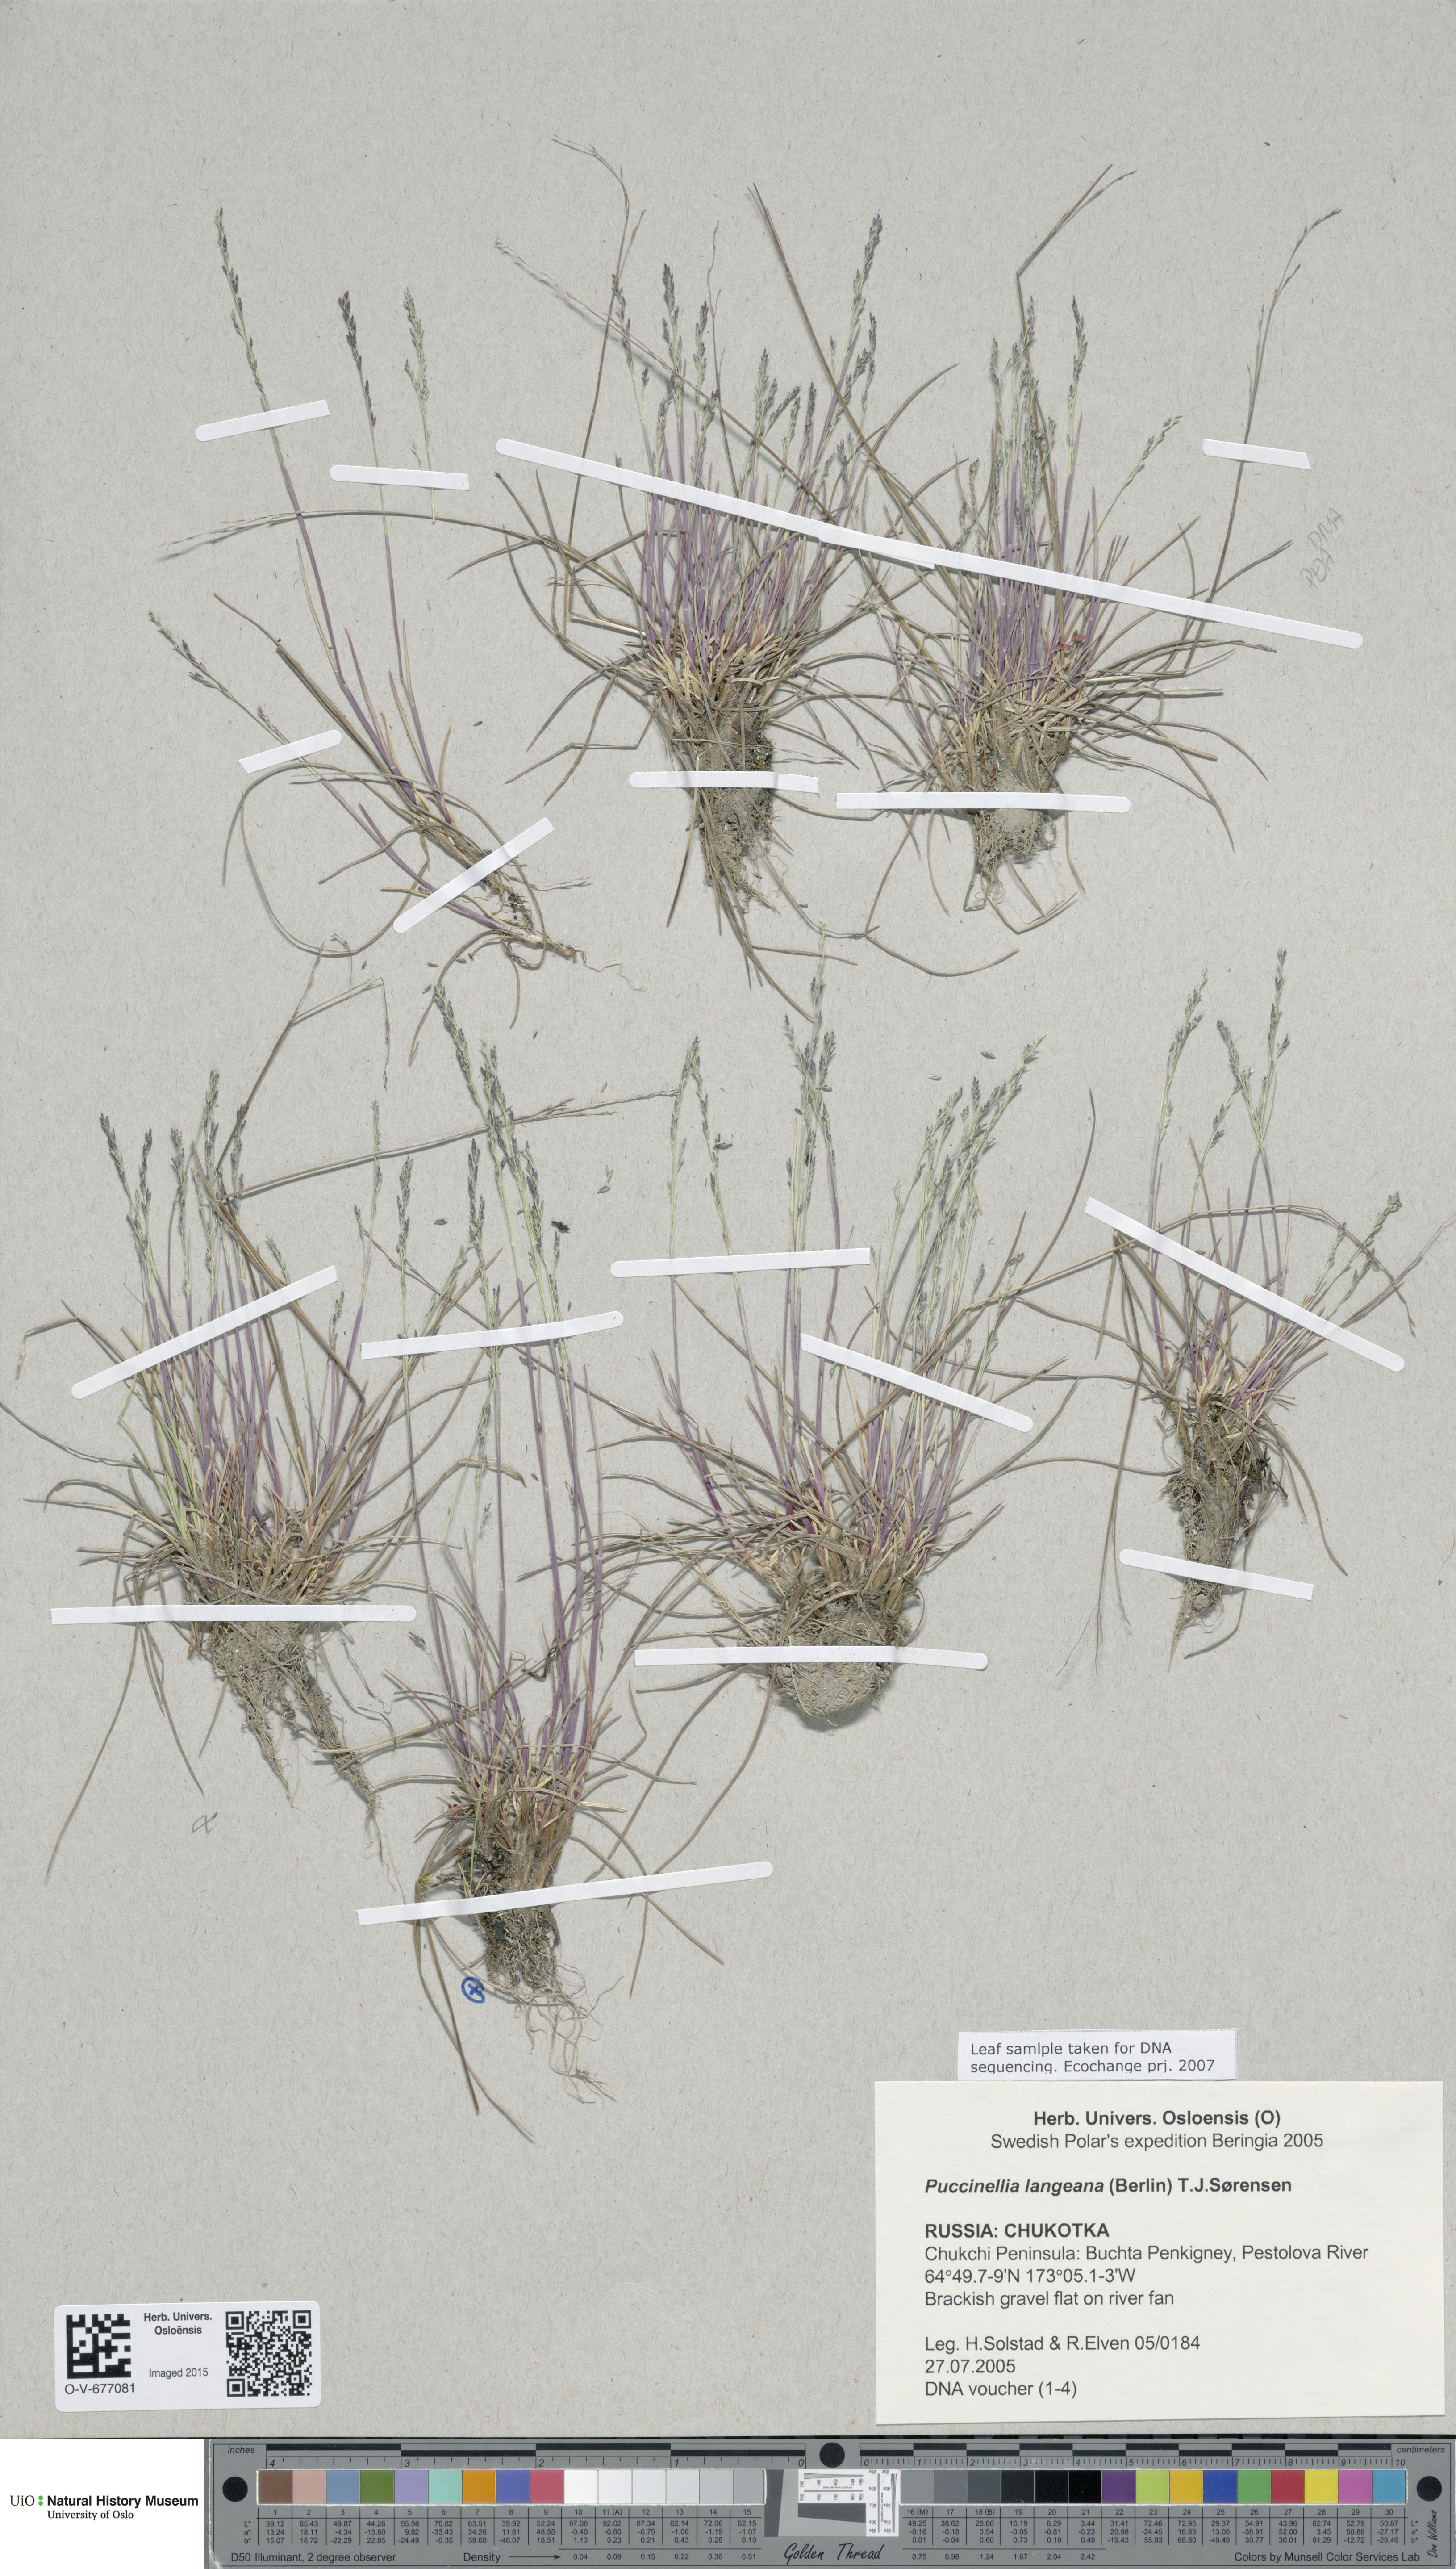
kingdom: Plantae
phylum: Tracheophyta
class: Liliopsida
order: Poales
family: Poaceae
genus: Puccinellia
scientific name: Puccinellia tenella
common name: Tundra alkaligrass
